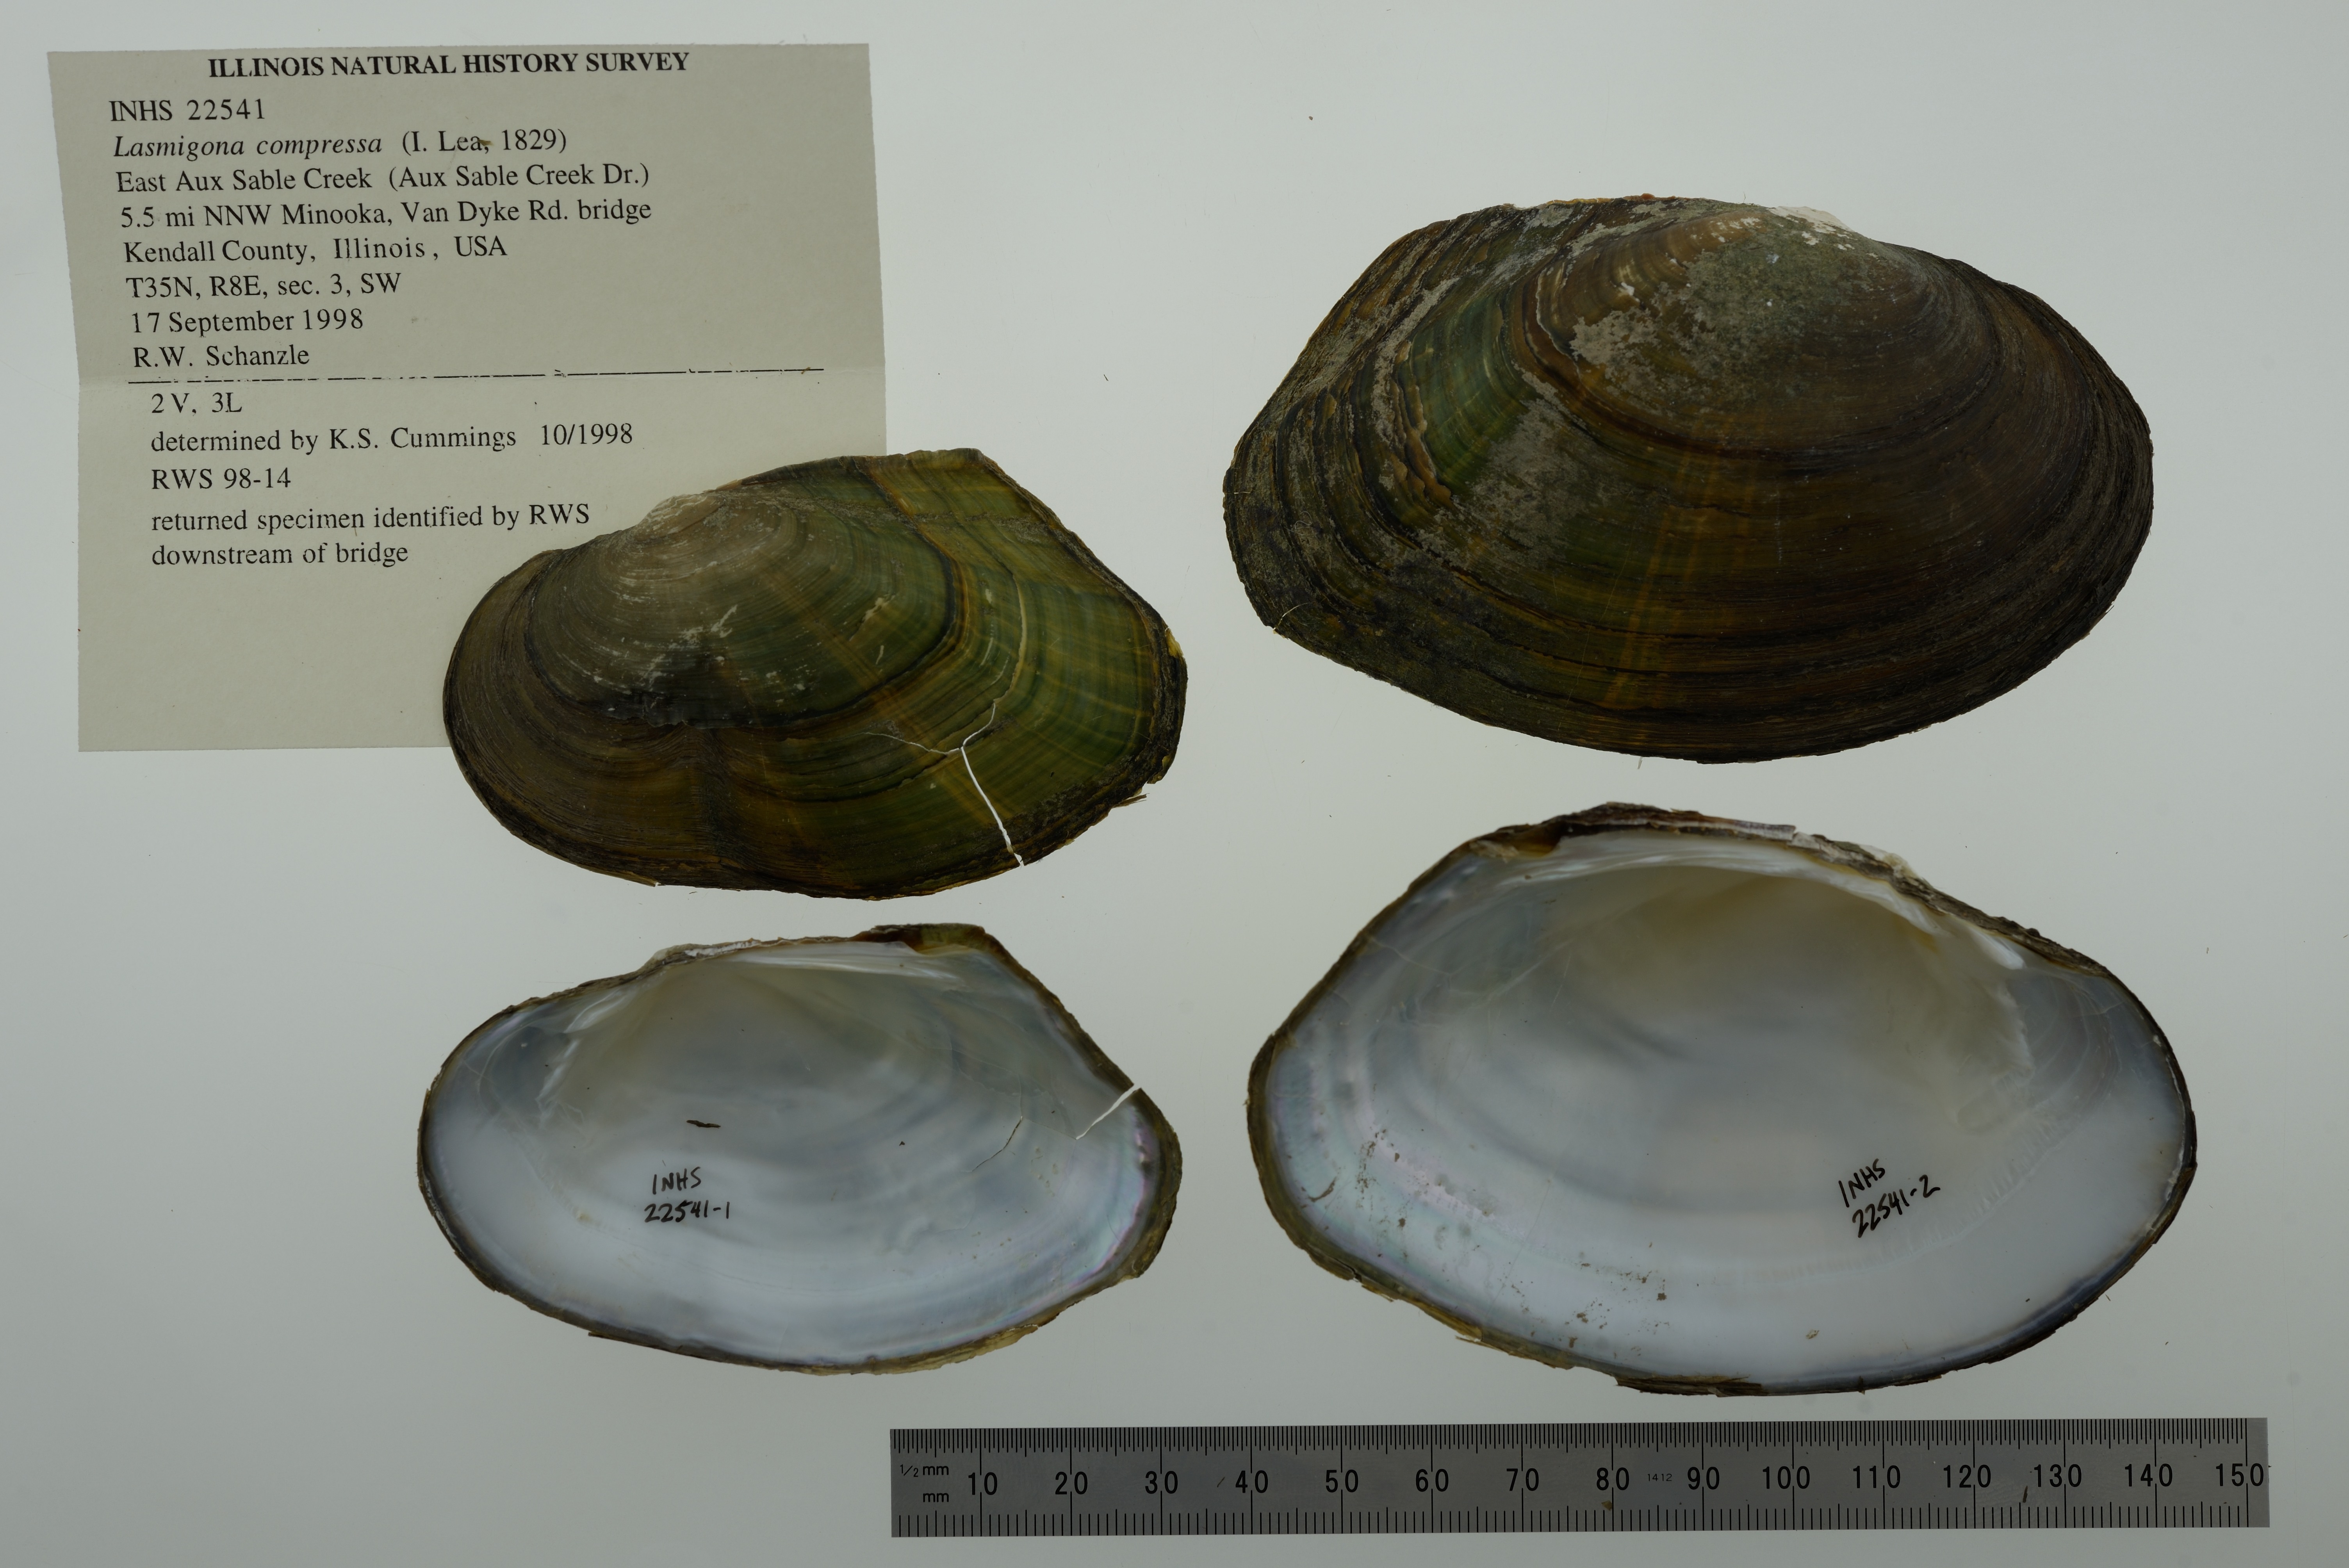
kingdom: Animalia
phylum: Mollusca
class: Bivalvia
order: Unionida
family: Unionidae
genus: Lasmigona
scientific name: Lasmigona compressa
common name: Creek heelsplitter
